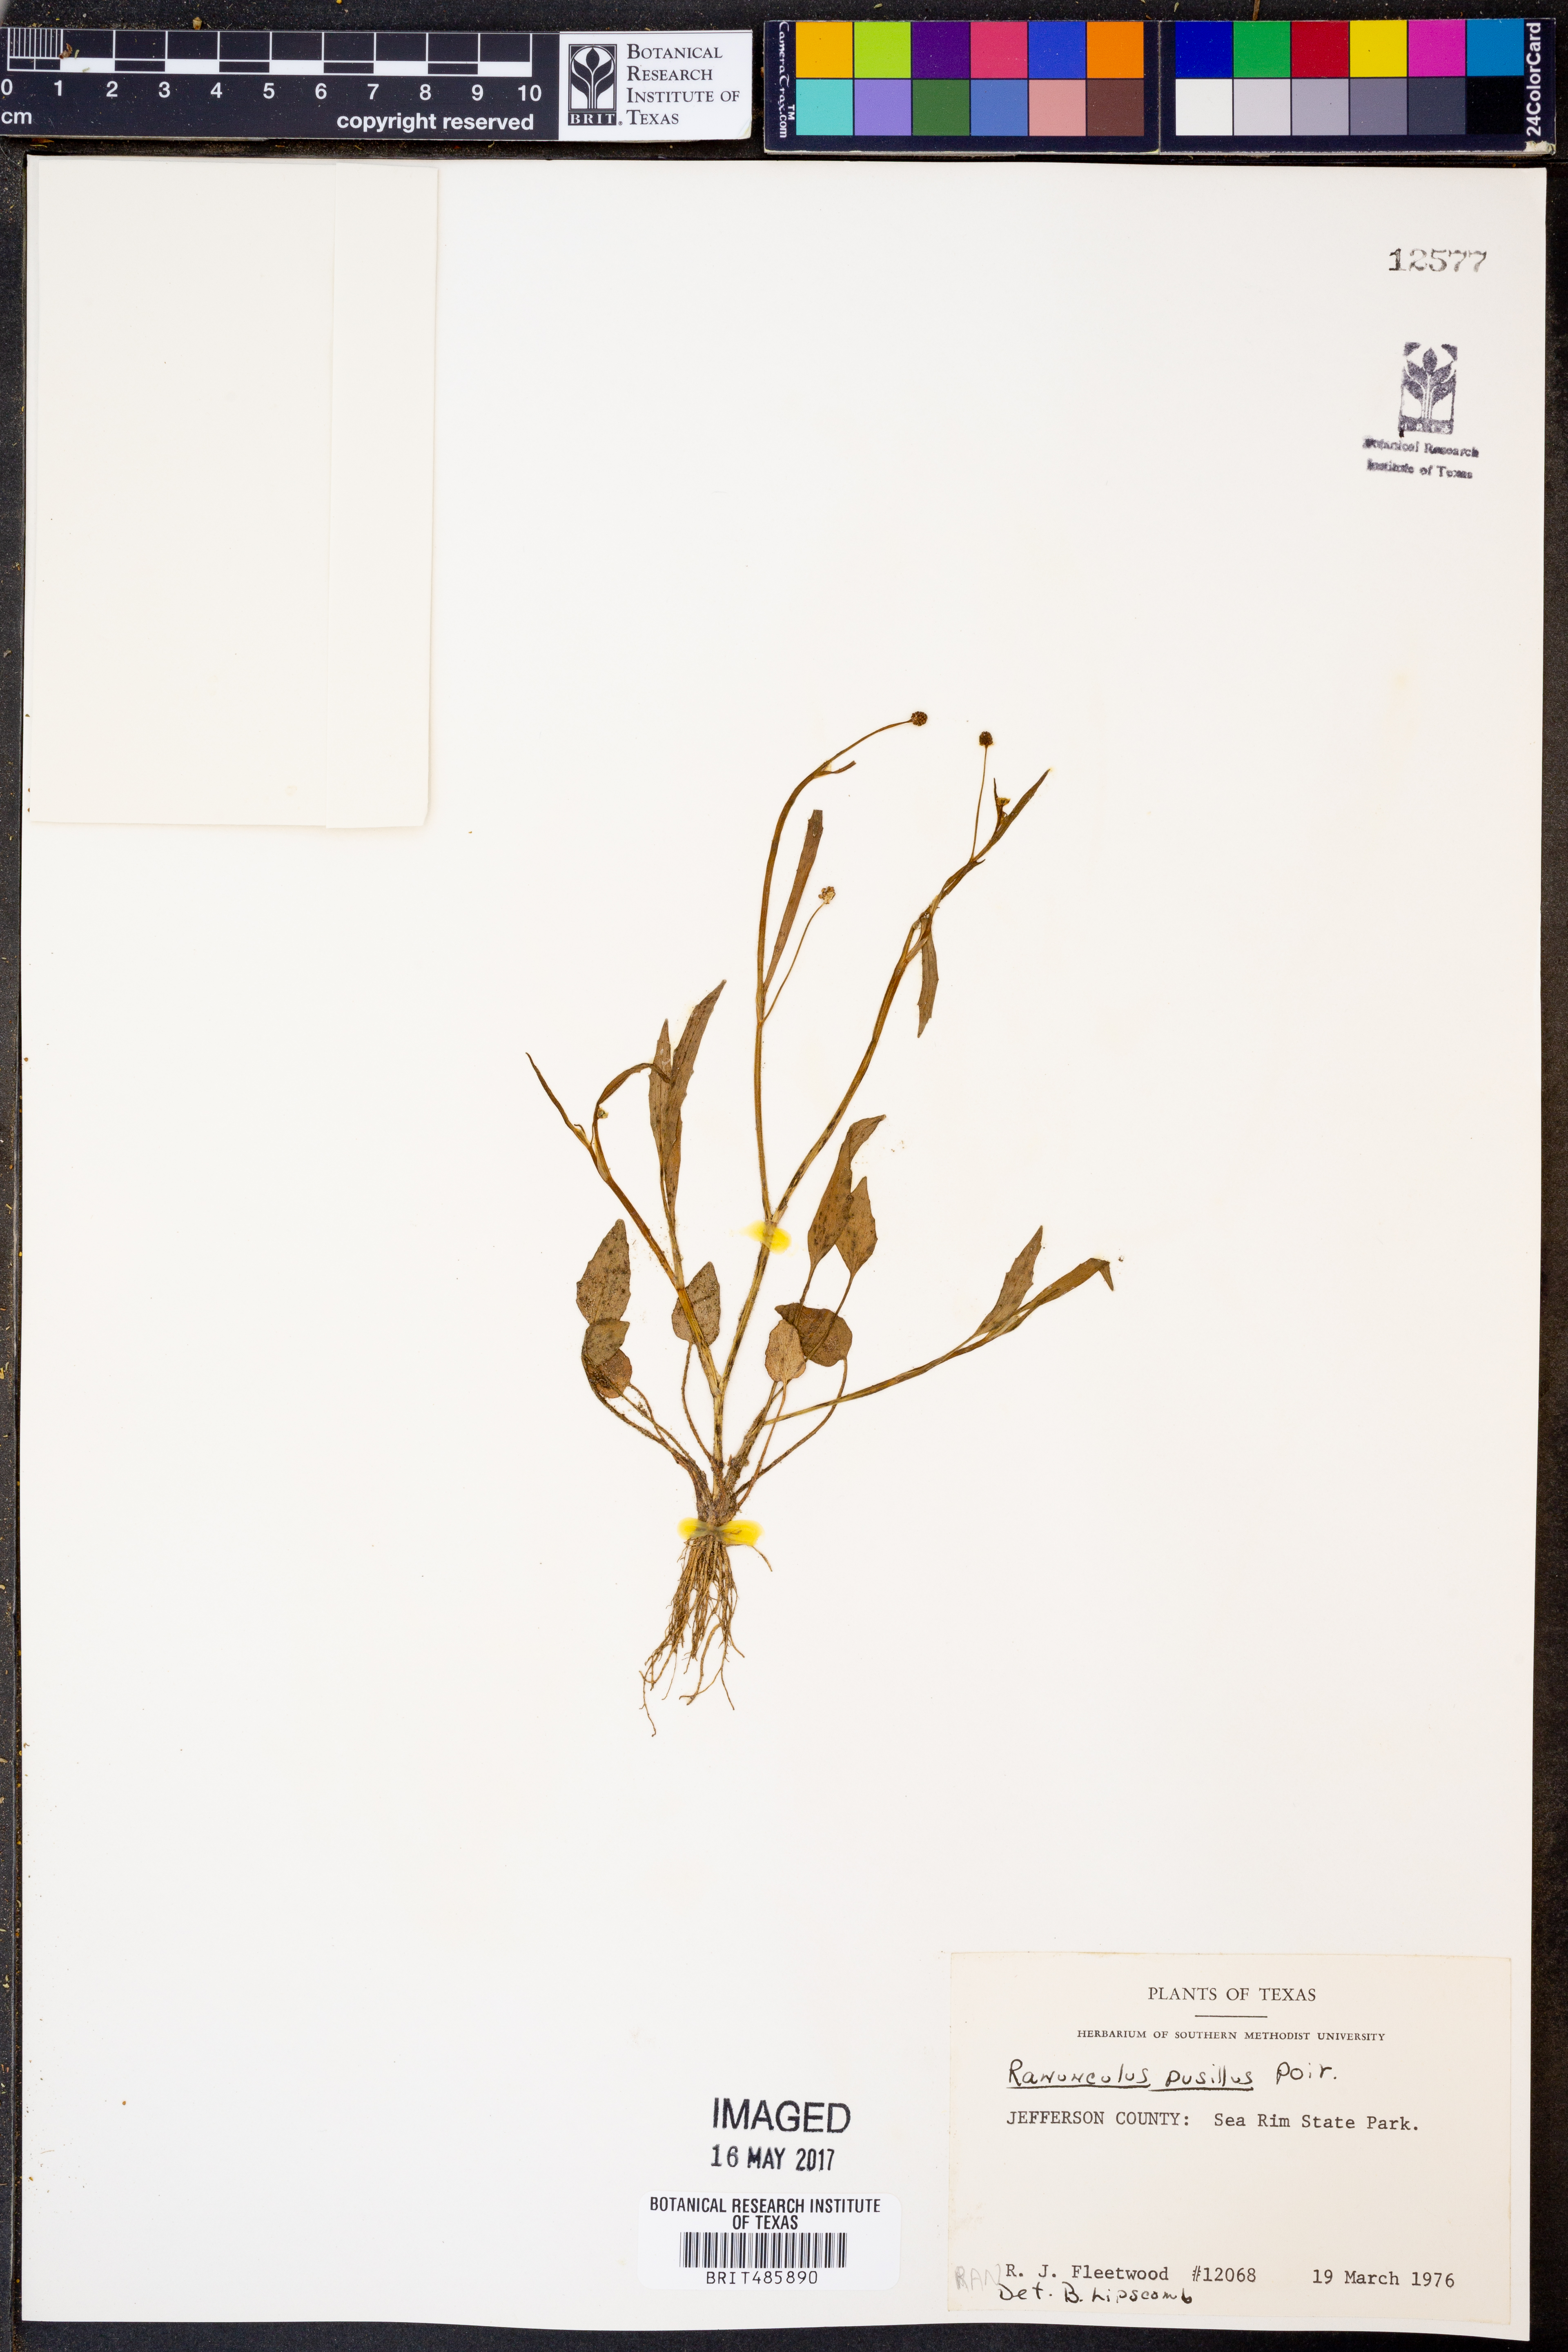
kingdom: Plantae
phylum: Tracheophyta
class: Magnoliopsida
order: Ranunculales
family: Ranunculaceae
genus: Ranunculus
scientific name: Ranunculus pusillus
